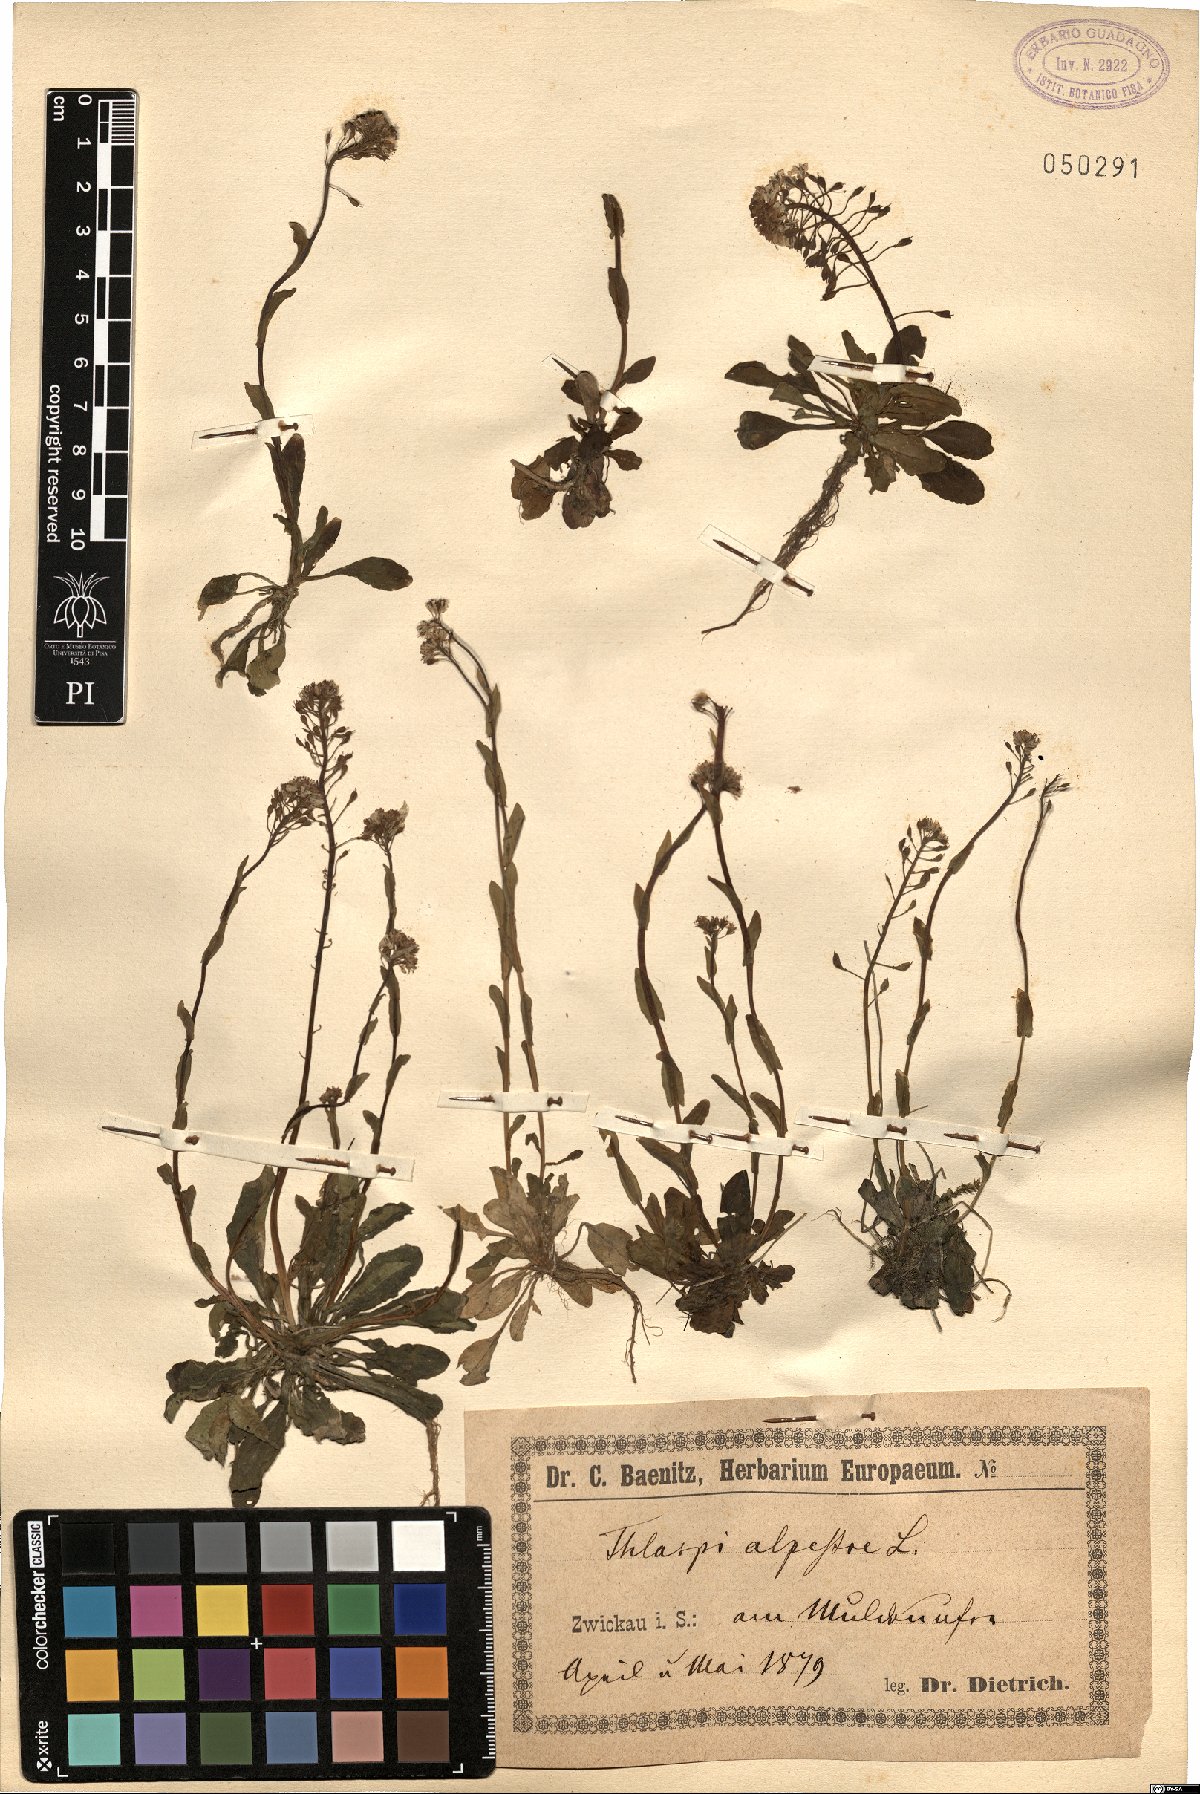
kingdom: Plantae
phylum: Tracheophyta
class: Magnoliopsida
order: Brassicales
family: Brassicaceae
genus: Noccaea
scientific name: Noccaea brachypetala
